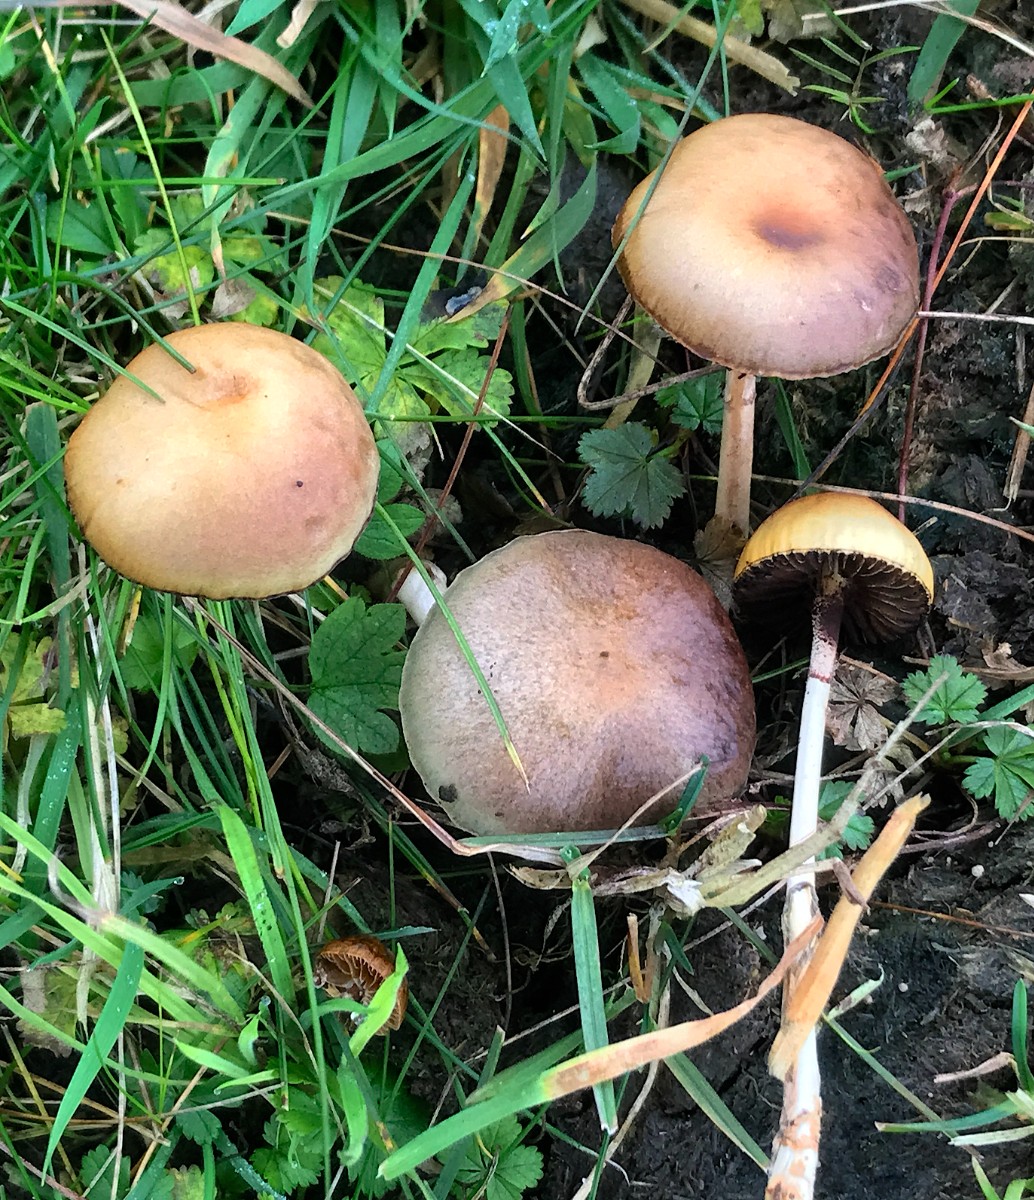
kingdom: Fungi
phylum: Basidiomycota
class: Agaricomycetes
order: Agaricales
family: Strophariaceae
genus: Protostropharia
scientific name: Protostropharia semiglobata
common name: halvkugleformet bredblad
